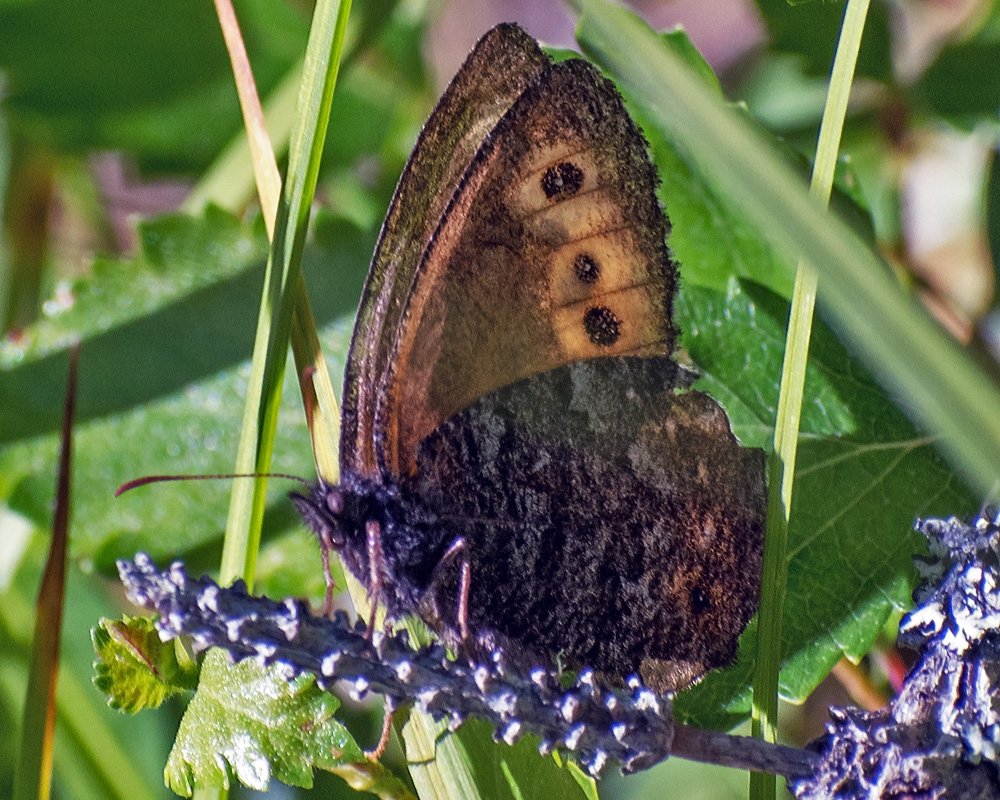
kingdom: Animalia
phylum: Arthropoda
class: Insecta
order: Lepidoptera
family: Nymphalidae
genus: Oeneis
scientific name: Oeneis jutta
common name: Jutta Arctic
